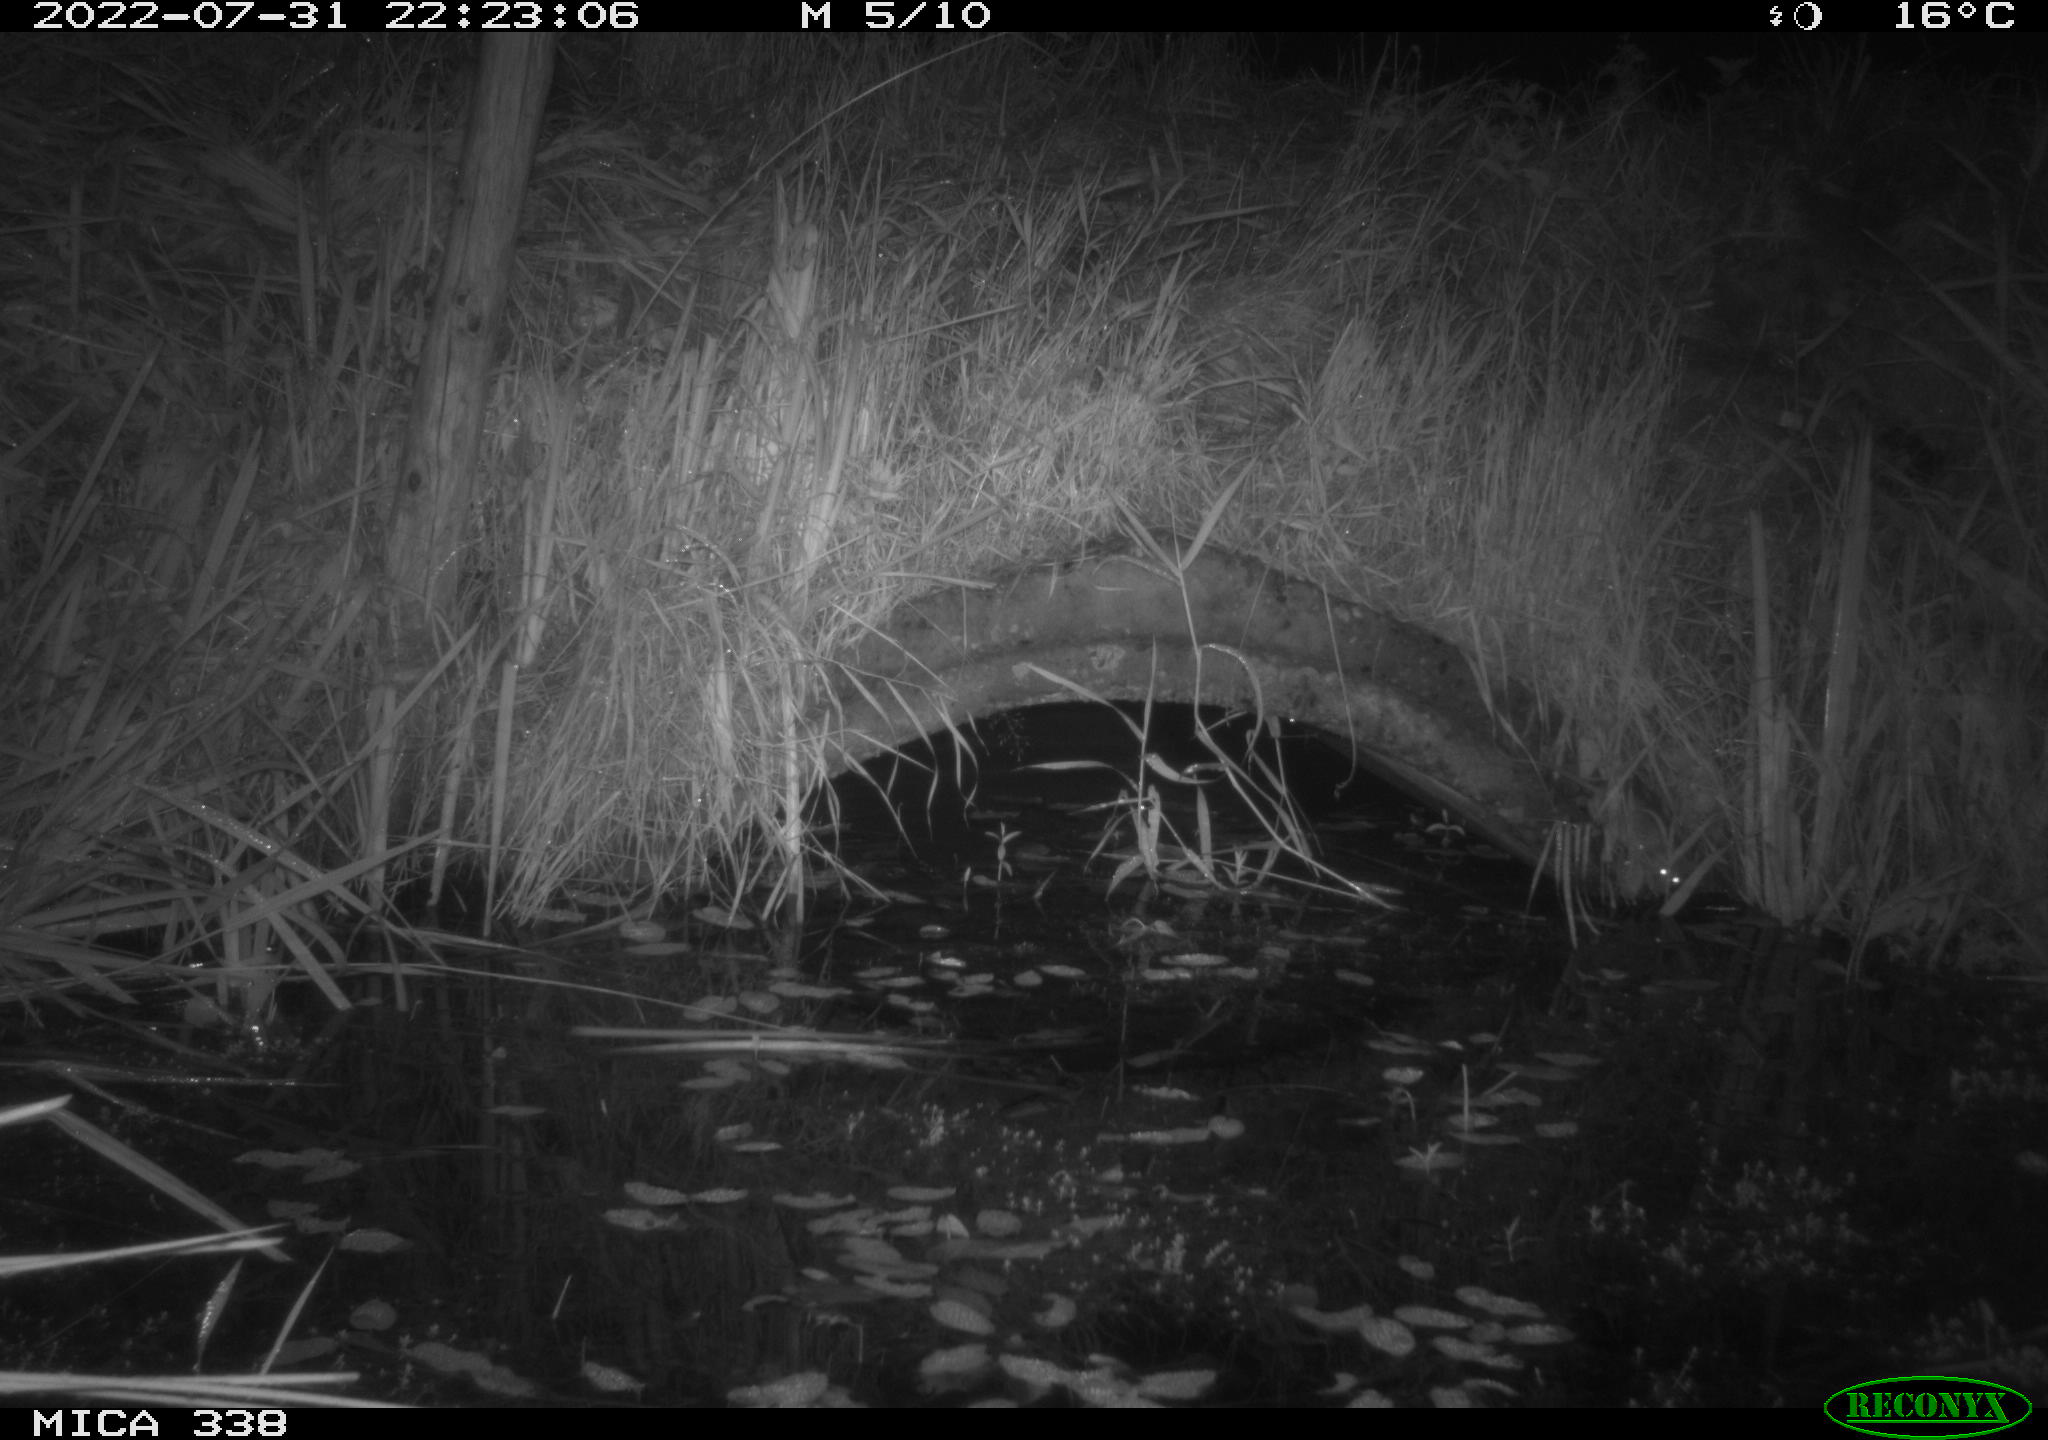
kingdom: Animalia
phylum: Chordata
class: Mammalia
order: Rodentia
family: Muridae
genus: Rattus
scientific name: Rattus norvegicus
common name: Brown rat
